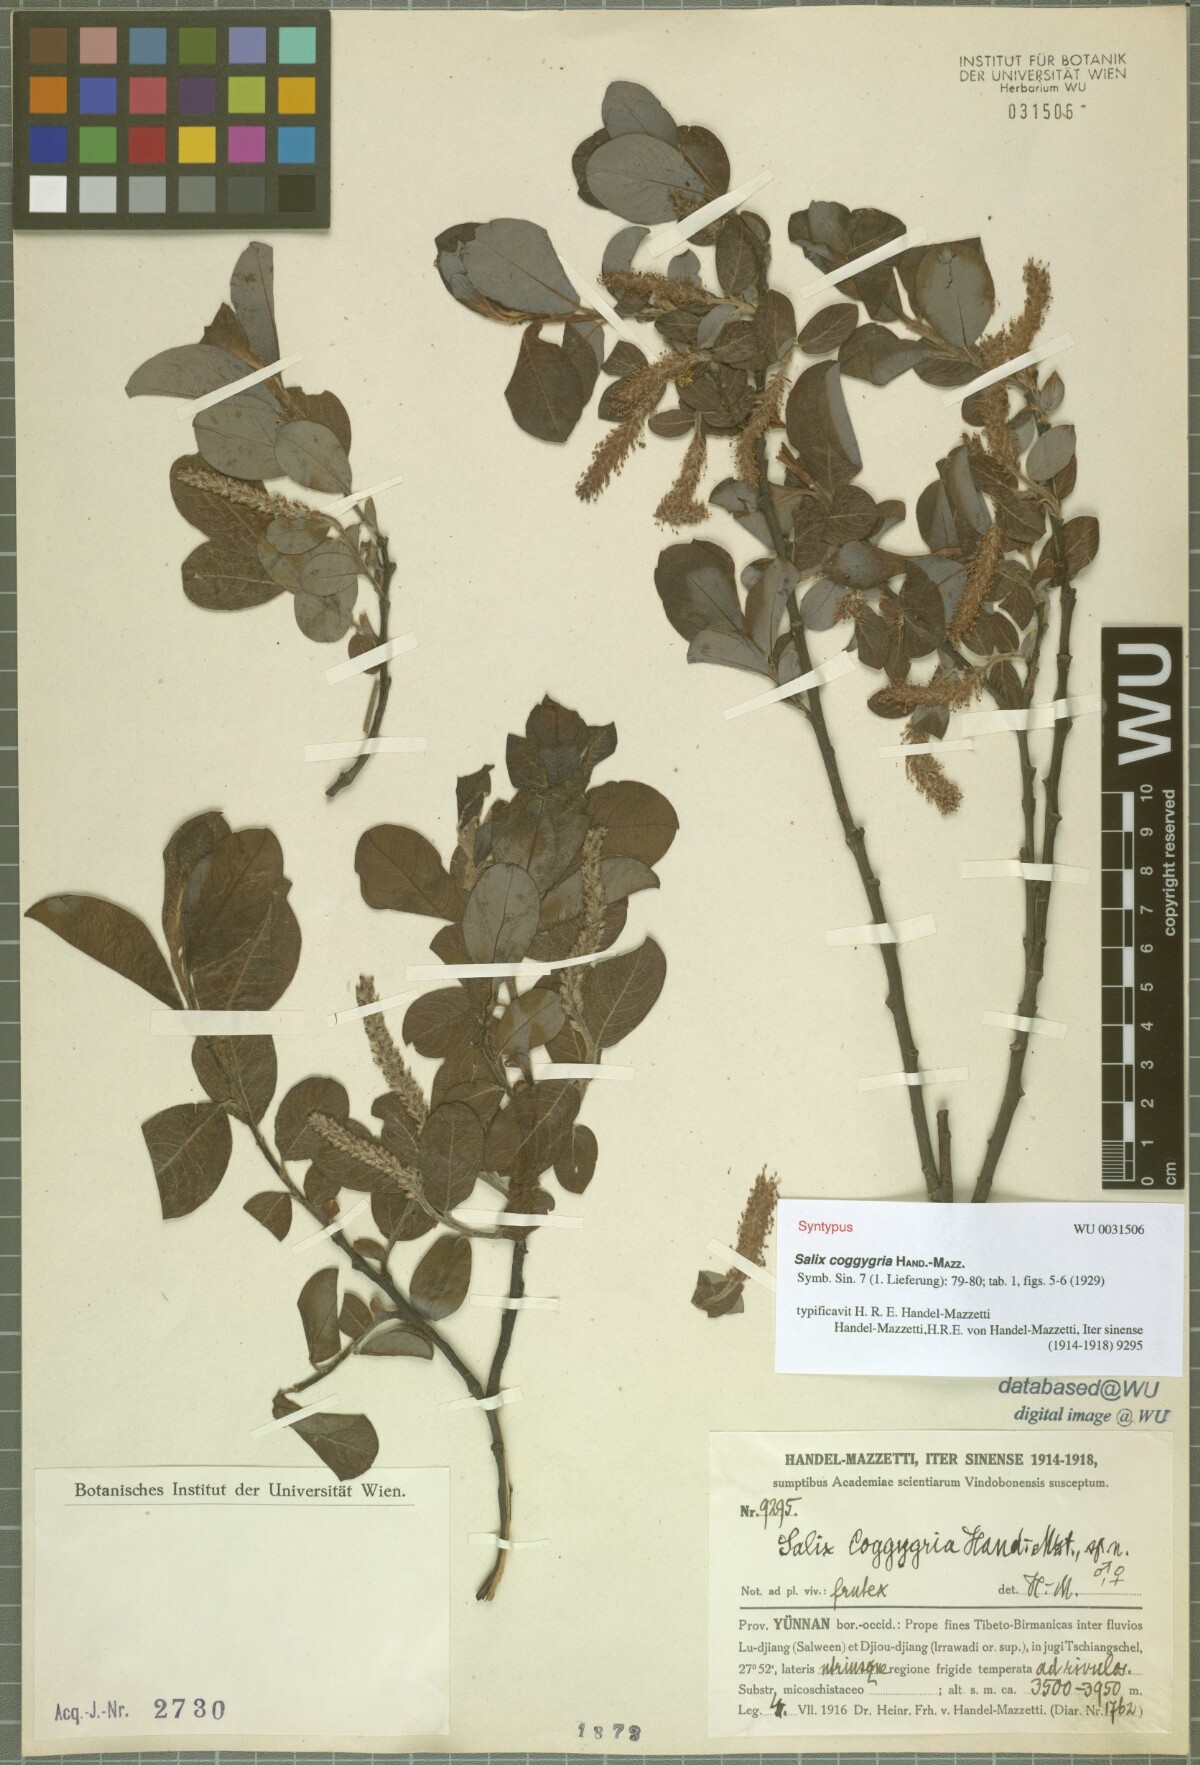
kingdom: Plantae
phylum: Tracheophyta
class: Magnoliopsida
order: Malpighiales
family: Salicaceae
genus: Salix
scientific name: Salix coggygria
